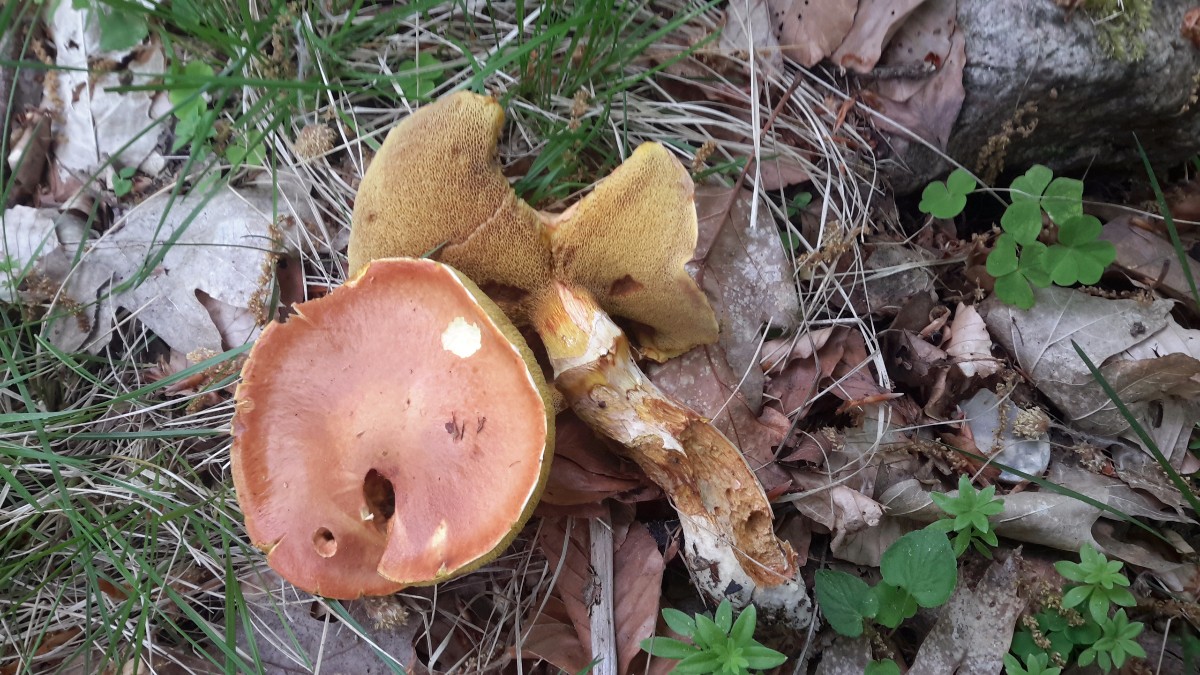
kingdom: Fungi
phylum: Basidiomycota
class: Agaricomycetes
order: Boletales
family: Suillaceae
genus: Suillus
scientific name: Suillus grevillei
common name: lærke-slimrørhat
